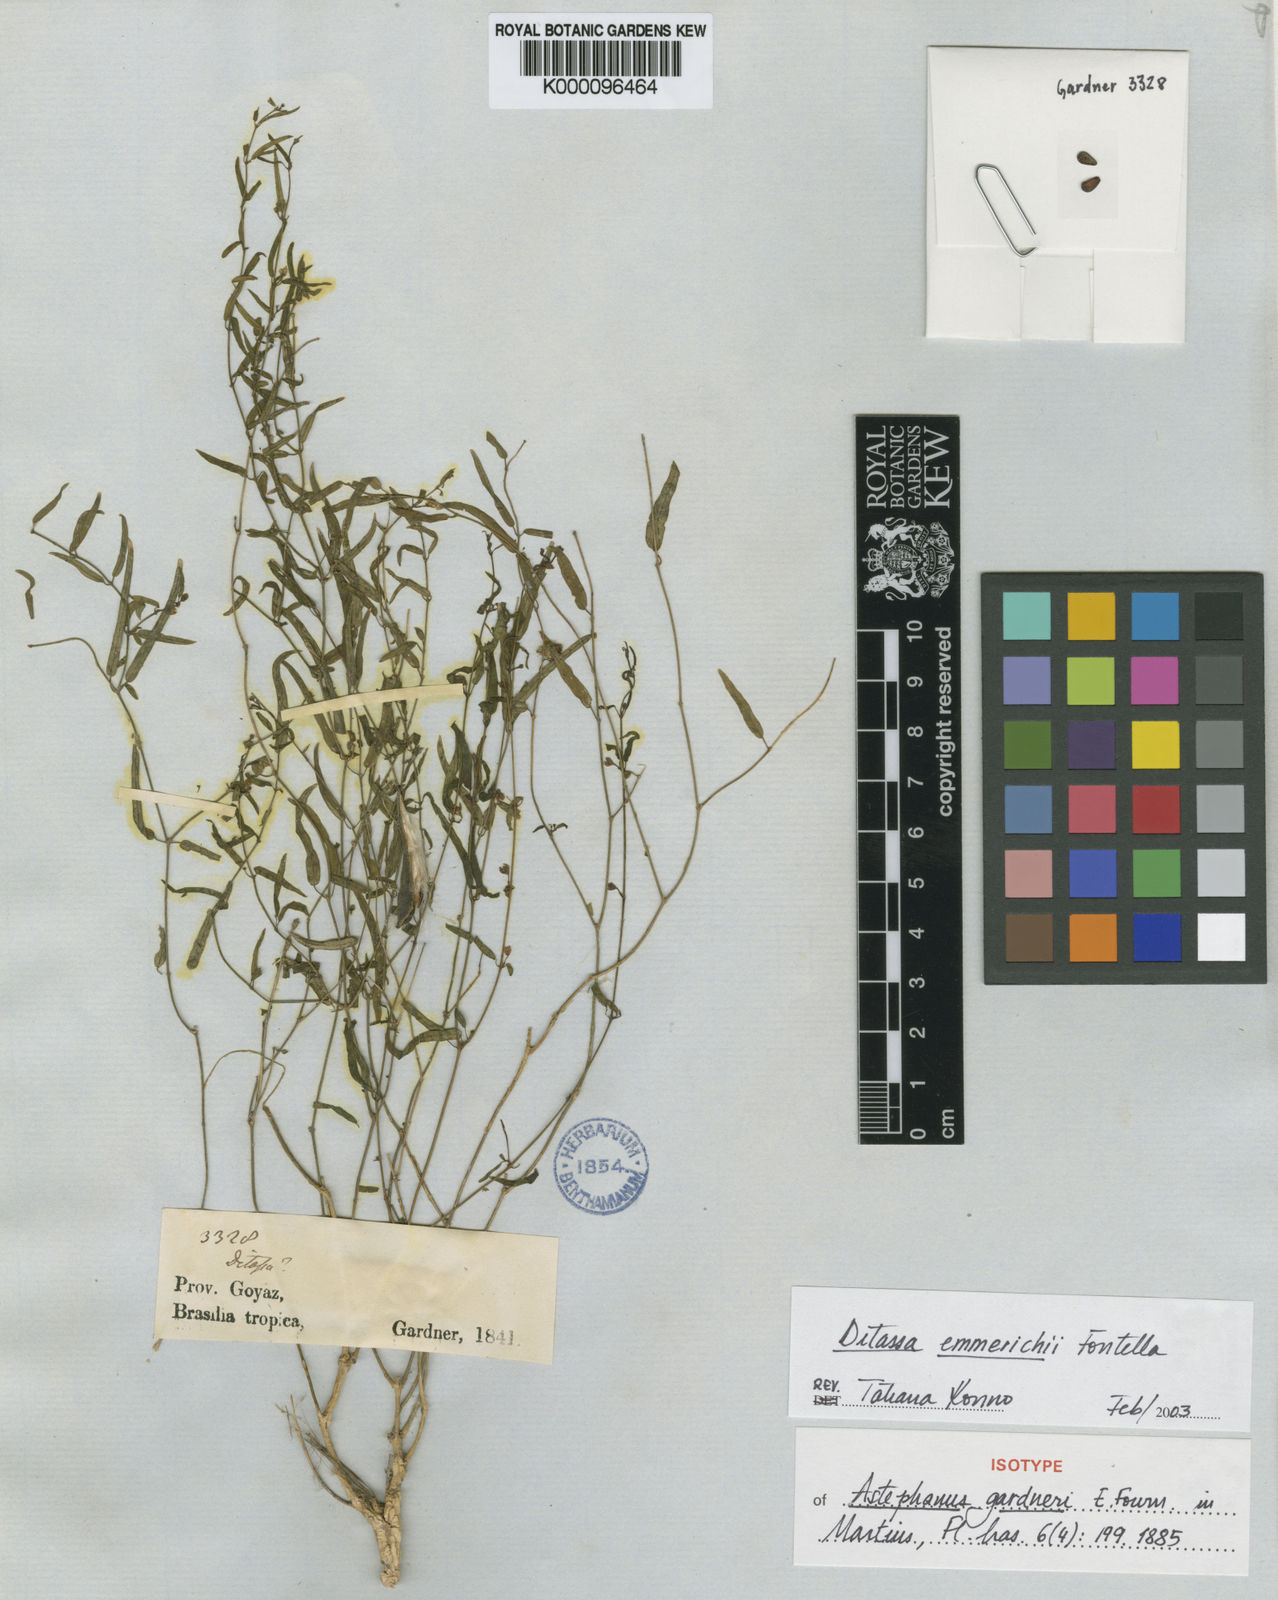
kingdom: Plantae
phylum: Tracheophyta
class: Magnoliopsida
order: Gentianales
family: Apocynaceae
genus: Ditassa
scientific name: Ditassa emmerichiae
